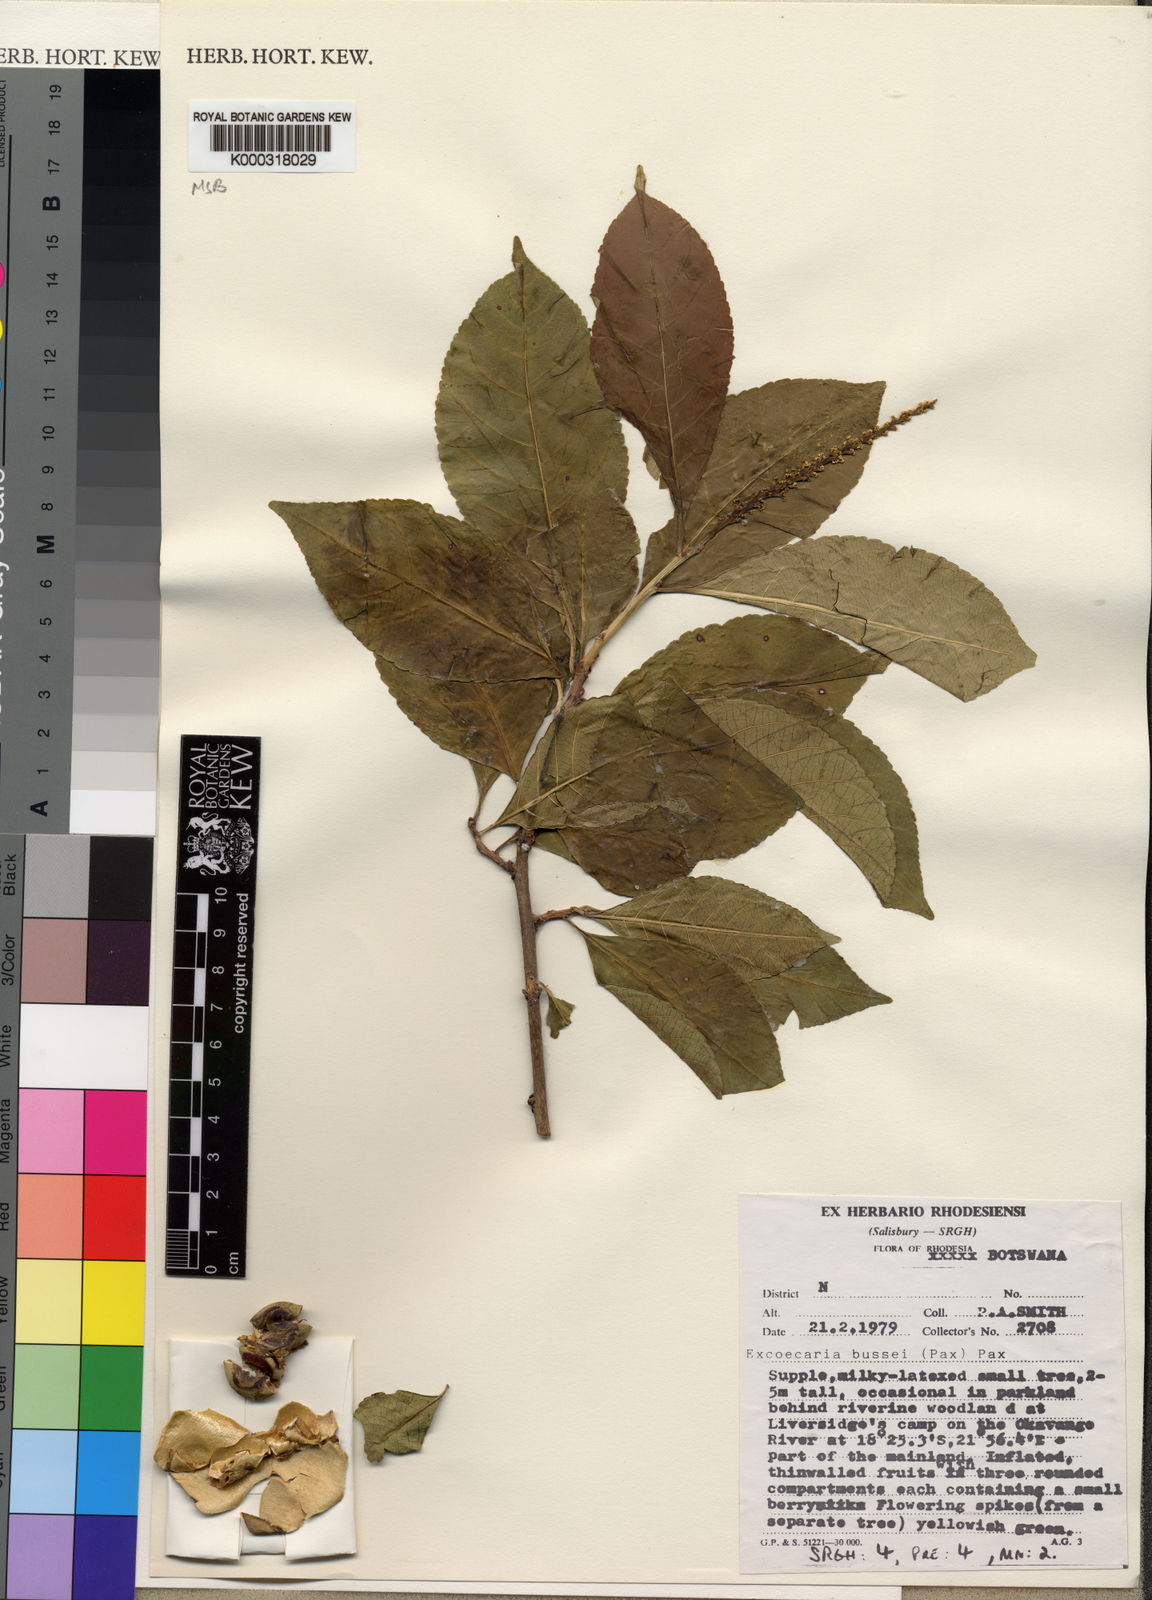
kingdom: Plantae
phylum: Tracheophyta
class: Magnoliopsida
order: Malpighiales
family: Euphorbiaceae
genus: Excoecaria
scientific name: Excoecaria bussei
